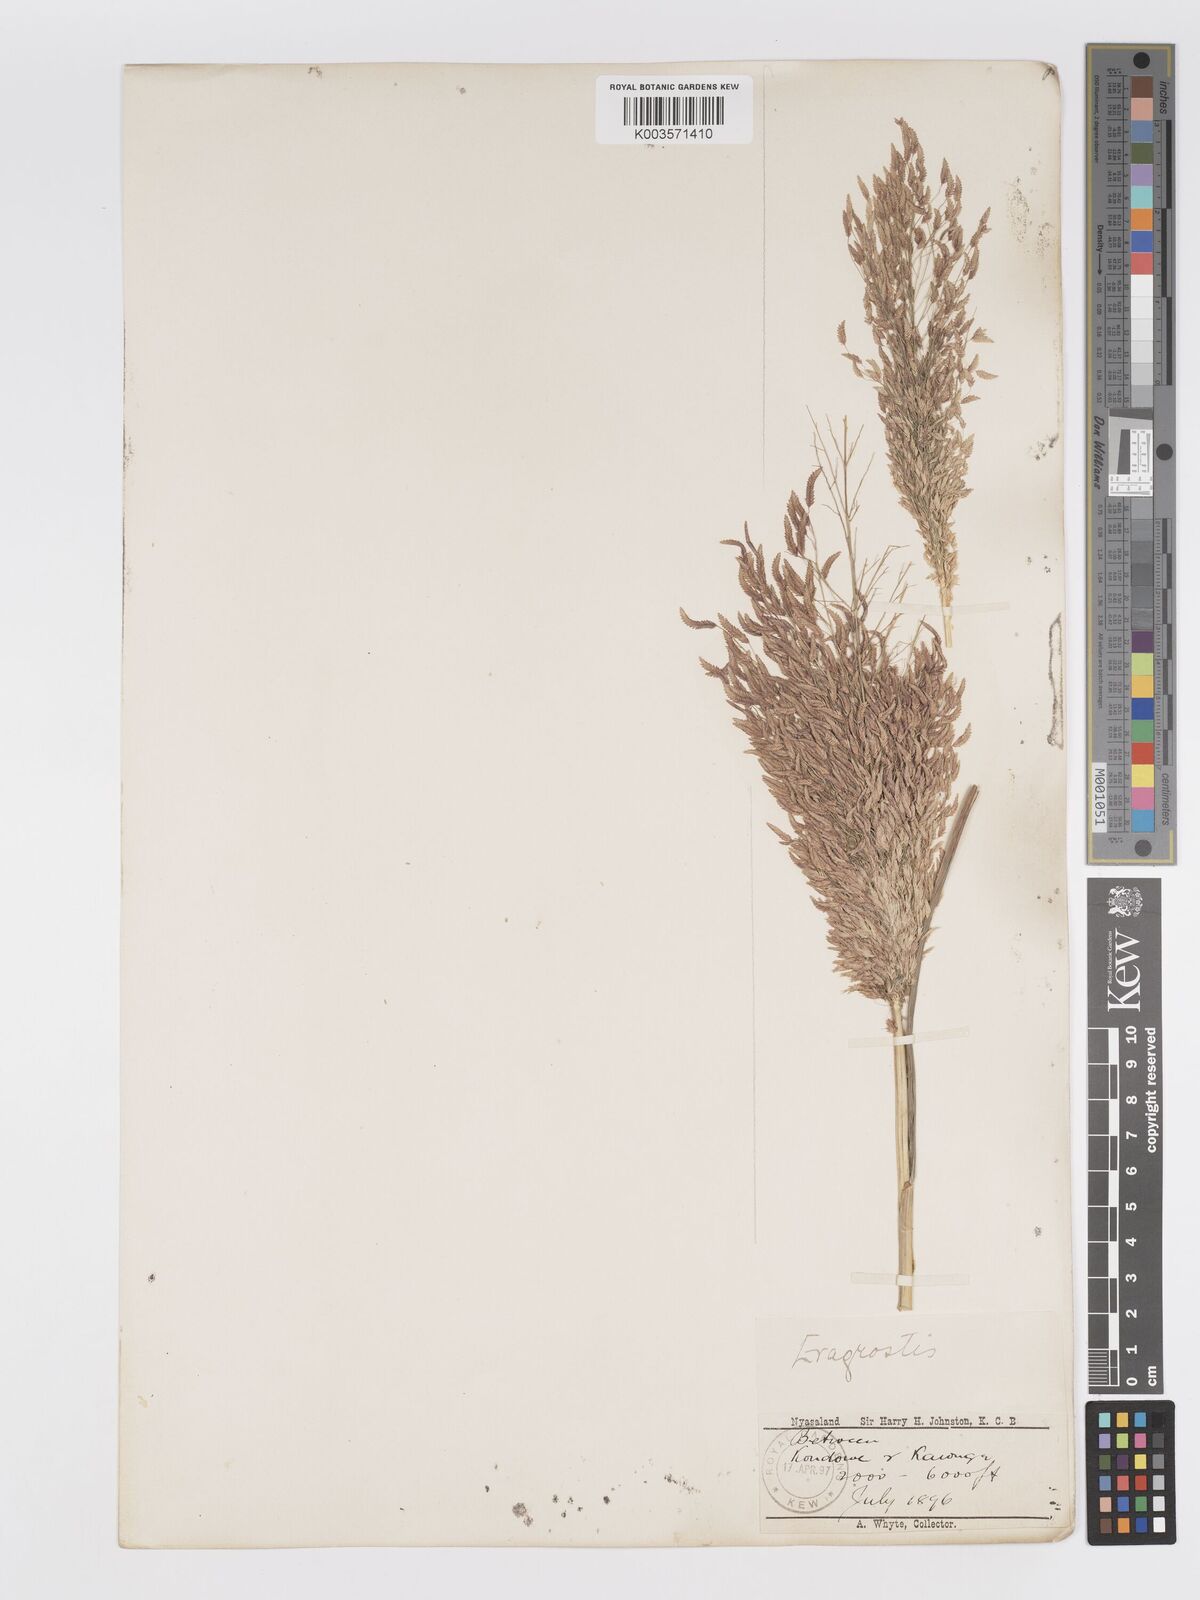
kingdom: Plantae
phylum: Tracheophyta
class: Liliopsida
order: Poales
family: Poaceae
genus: Eragrostis
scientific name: Eragrostis aspera
